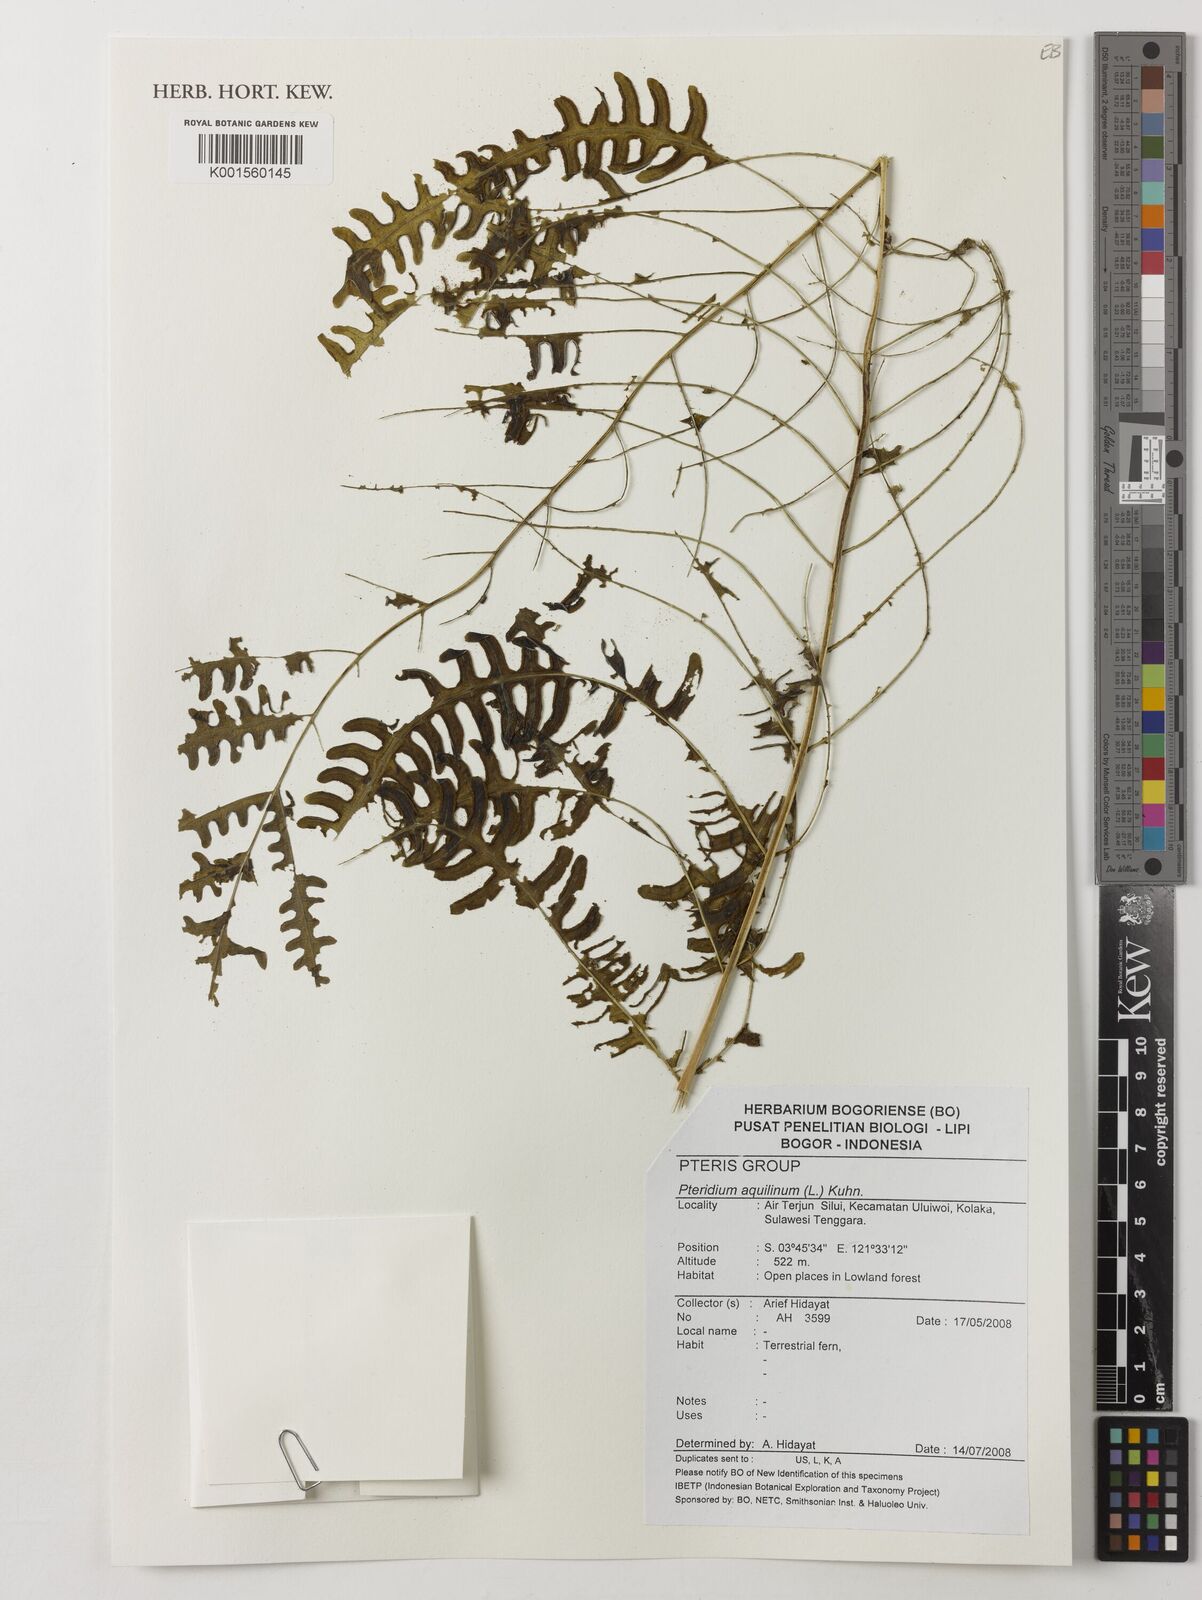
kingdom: Plantae
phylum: Tracheophyta
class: Polypodiopsida
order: Polypodiales
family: Dennstaedtiaceae
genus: Pteridium
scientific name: Pteridium aquilinum
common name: Bracken
